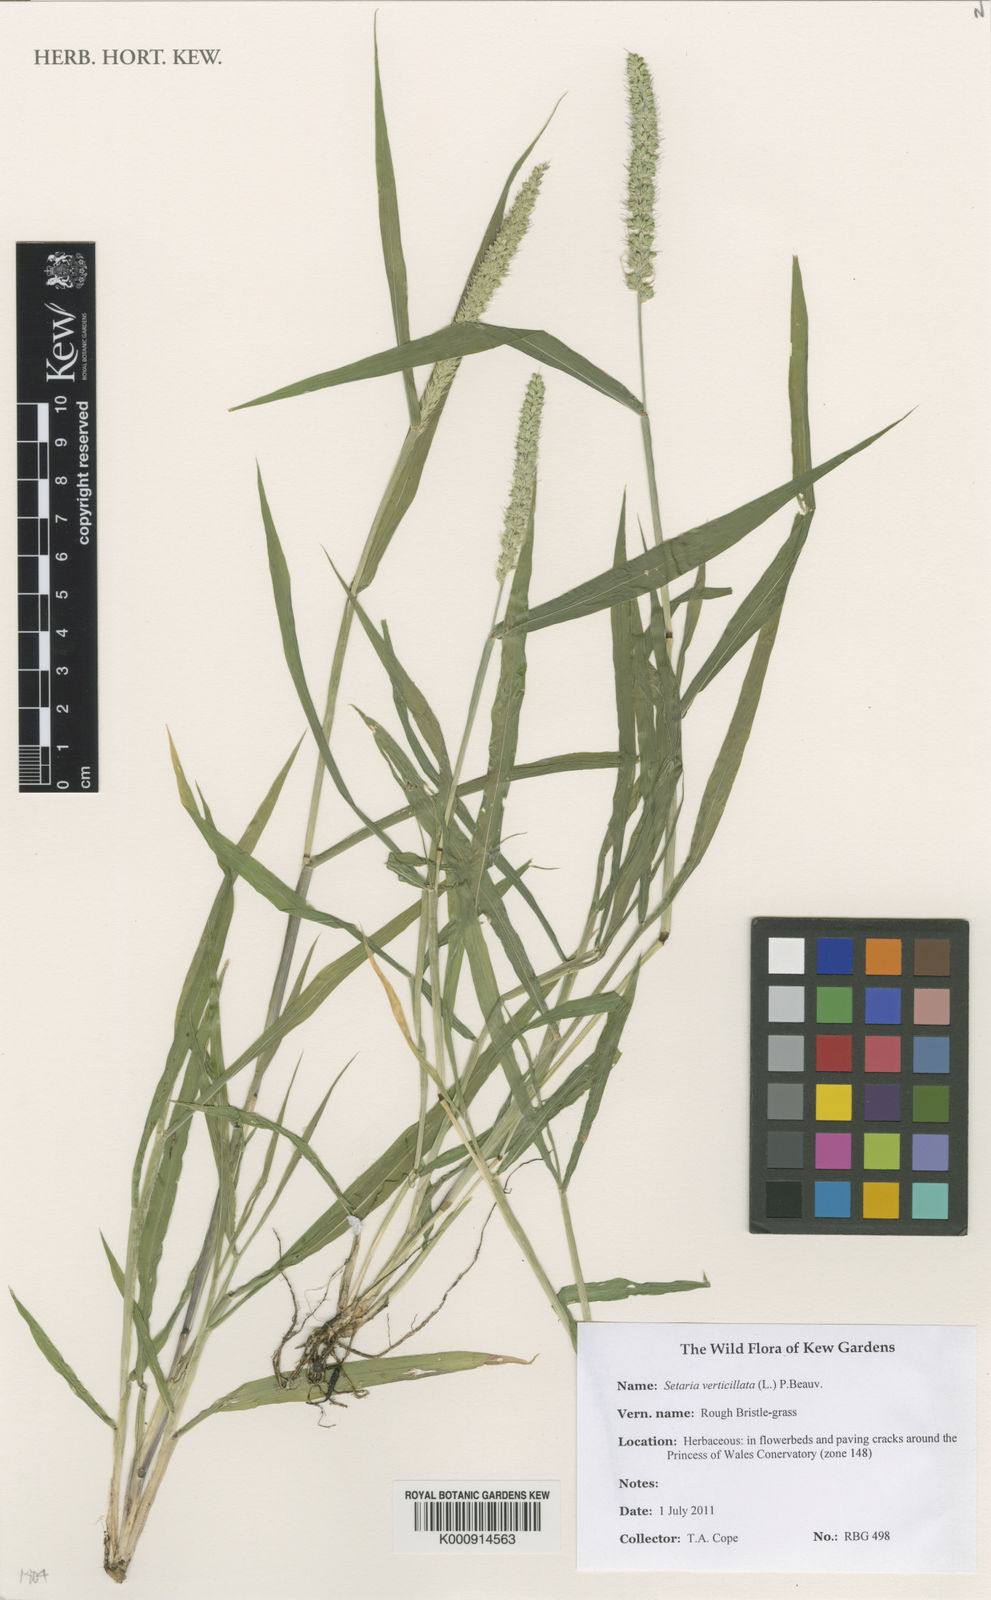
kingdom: Plantae
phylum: Tracheophyta
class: Liliopsida
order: Poales
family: Poaceae
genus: Setaria
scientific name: Setaria verticillata
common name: Hooked bristlegrass
